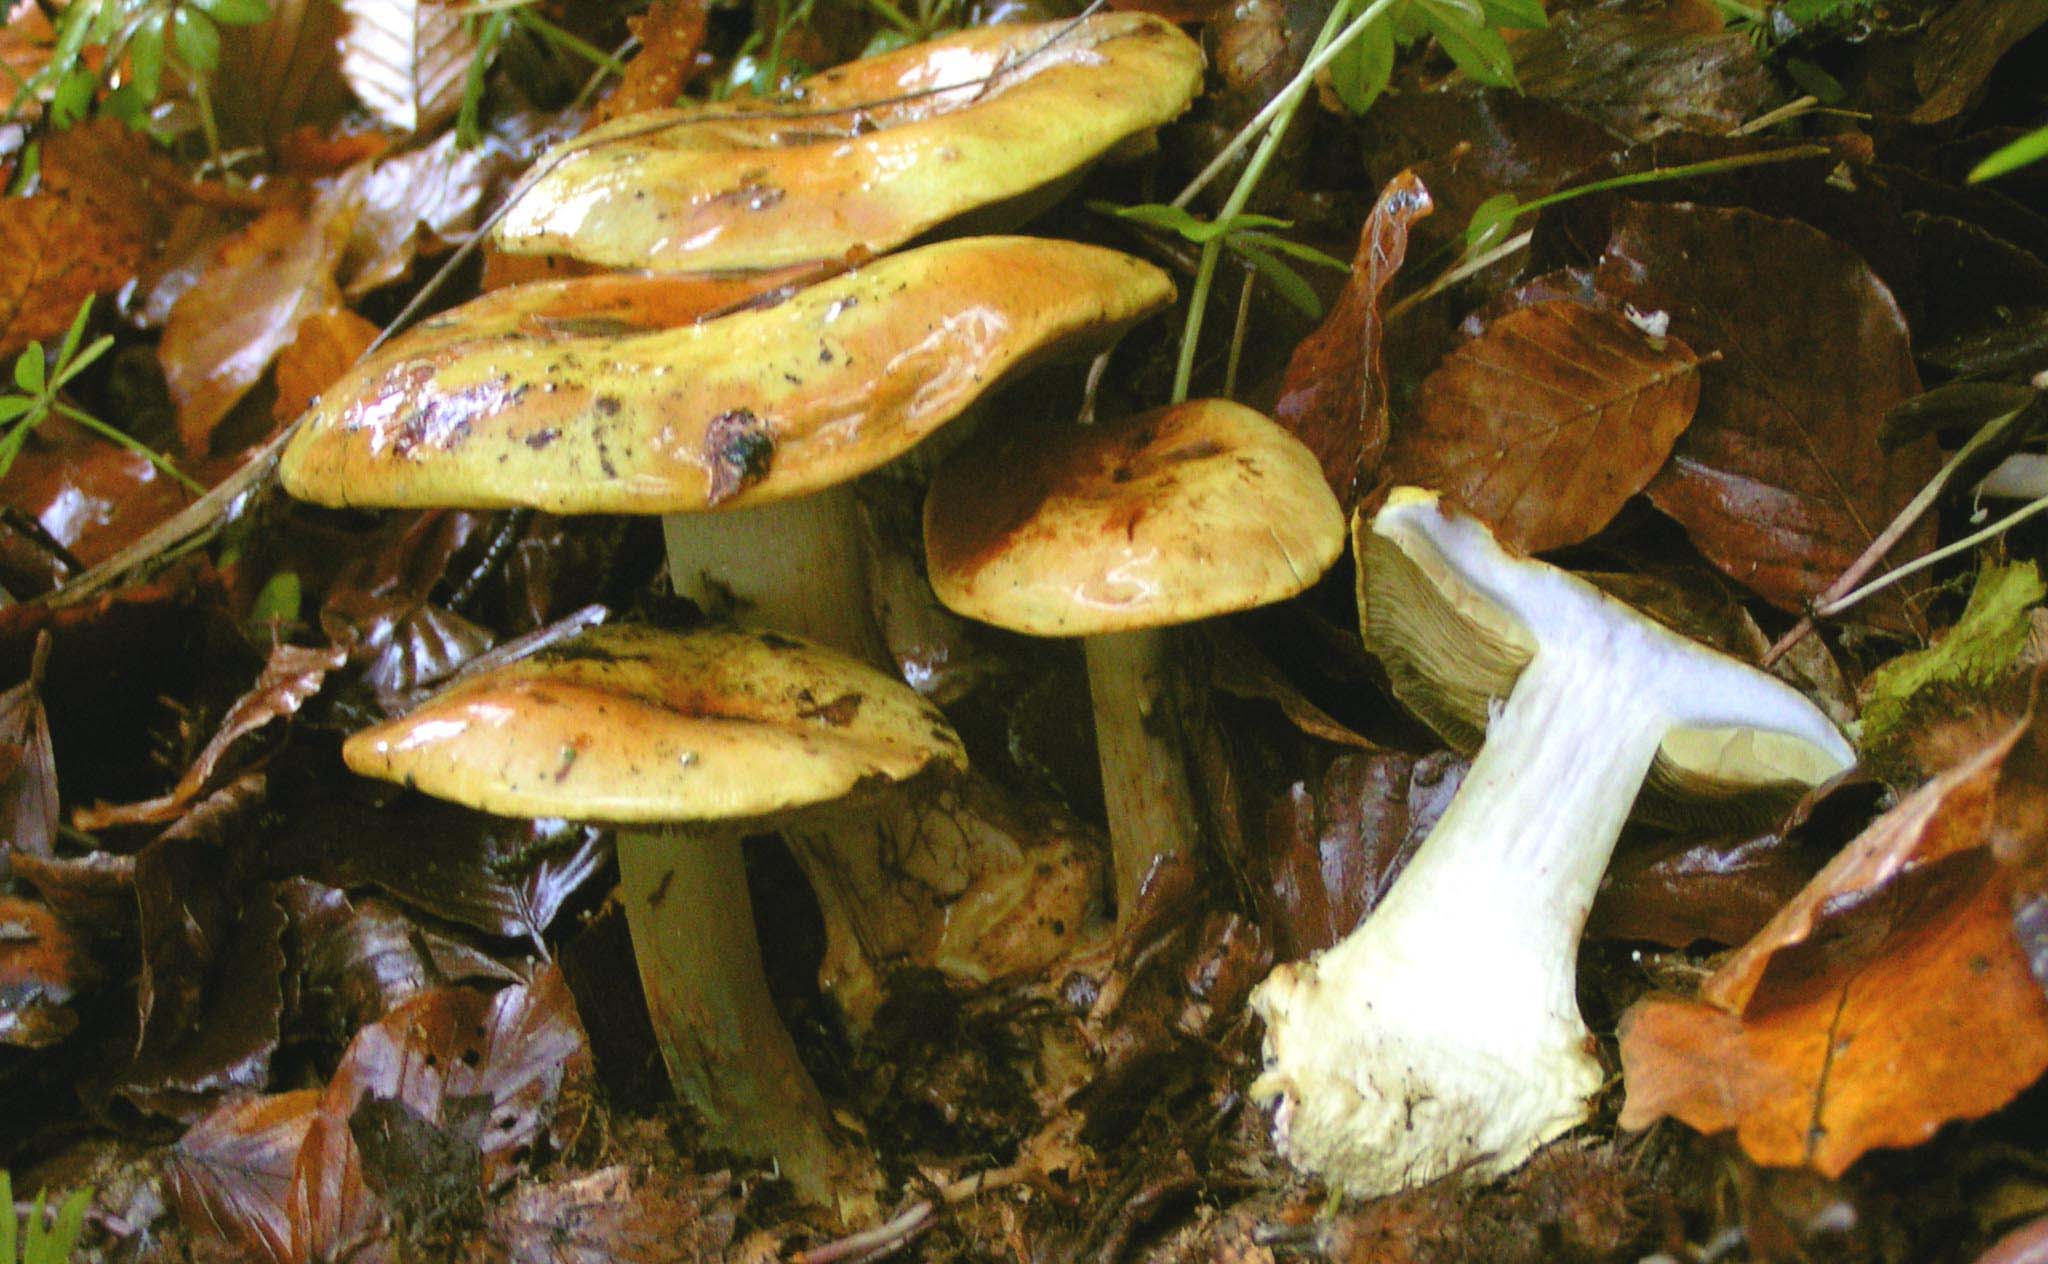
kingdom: Fungi
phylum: Basidiomycota
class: Agaricomycetes
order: Agaricales
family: Cortinariaceae
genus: Cortinarius
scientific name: Cortinarius bergeronii
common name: prægtig slørhat
